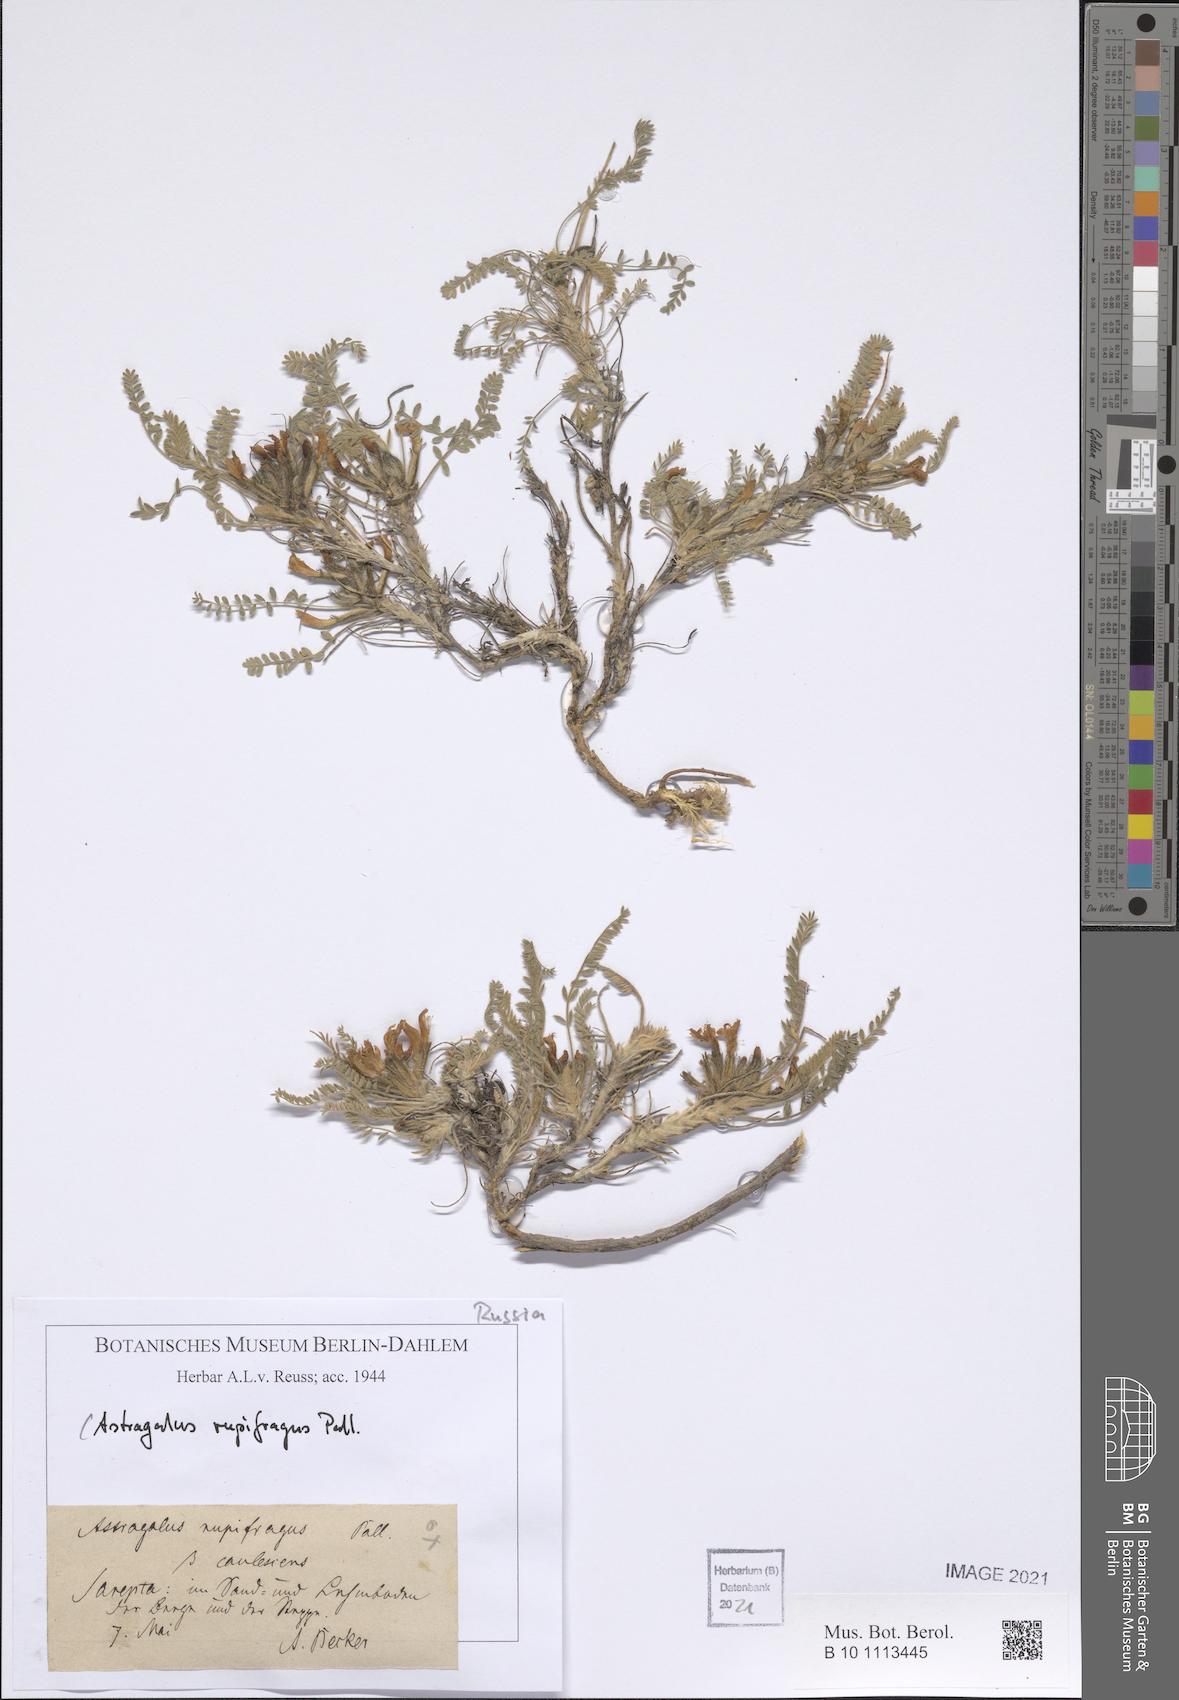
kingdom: Plantae
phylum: Tracheophyta
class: Magnoliopsida
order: Fabales
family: Fabaceae
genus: Astragalus
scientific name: Astragalus rupifragus
